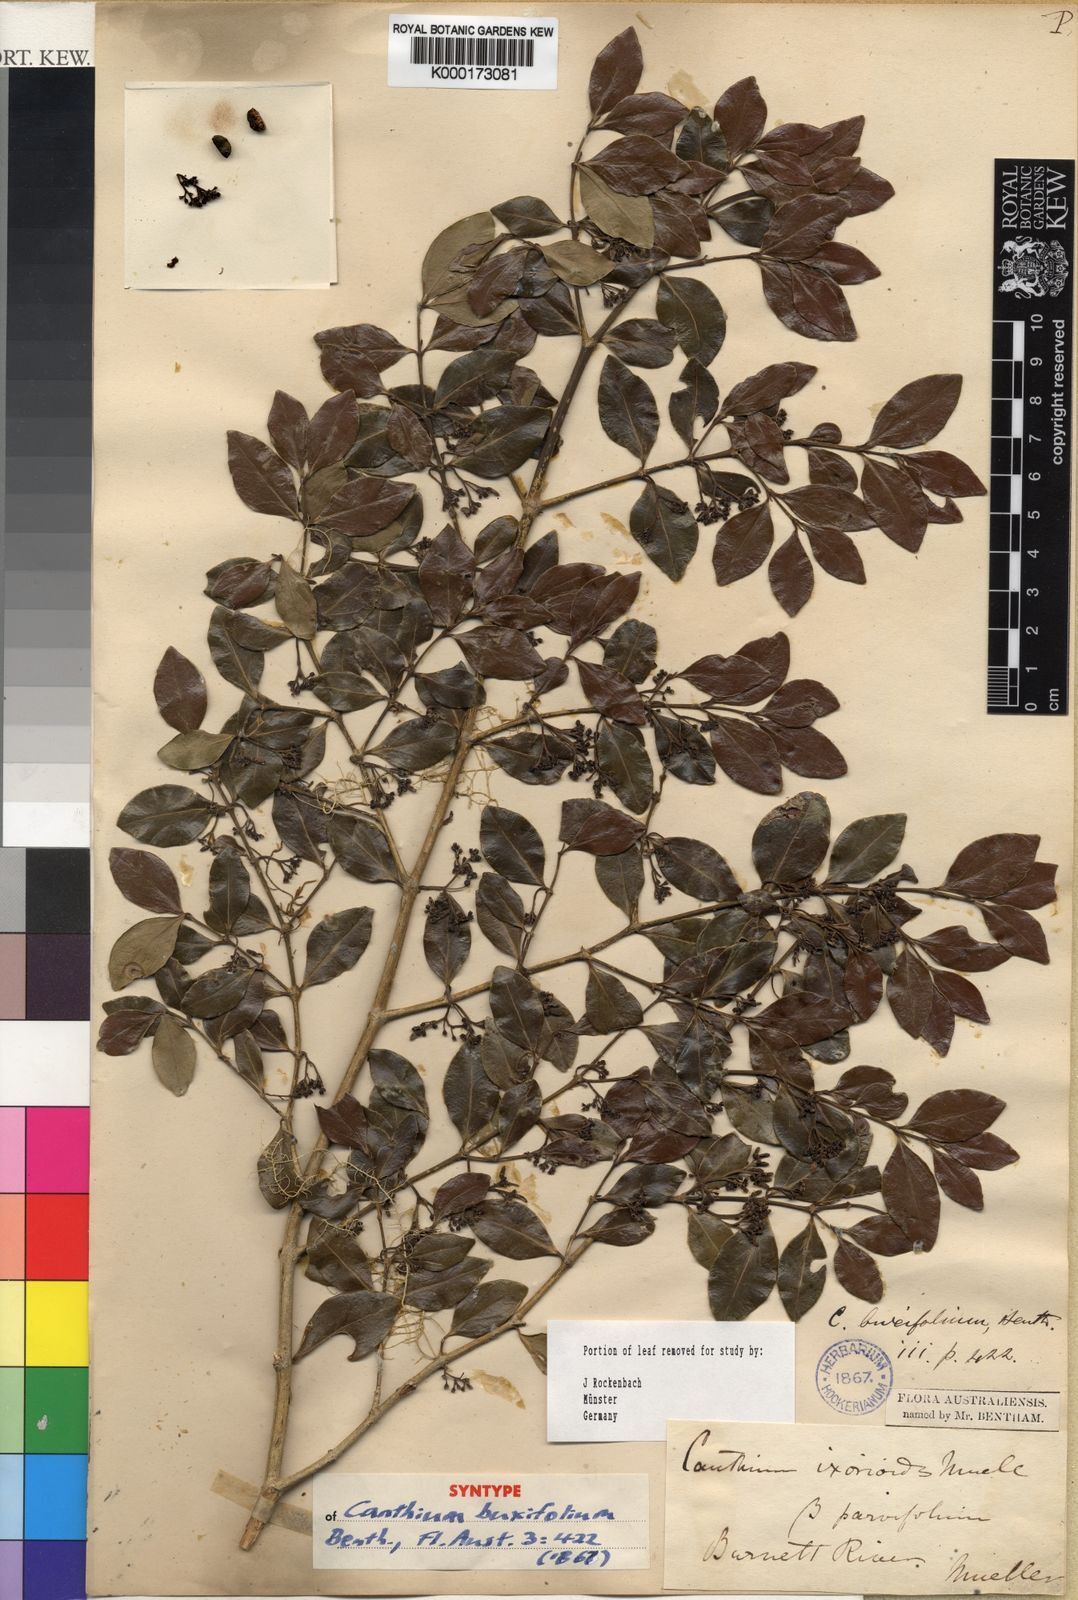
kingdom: Plantae
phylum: Tracheophyta
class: Magnoliopsida
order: Gentianales
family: Rubiaceae
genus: Psydrax
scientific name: Psydrax odoratus
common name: Alahe'e
